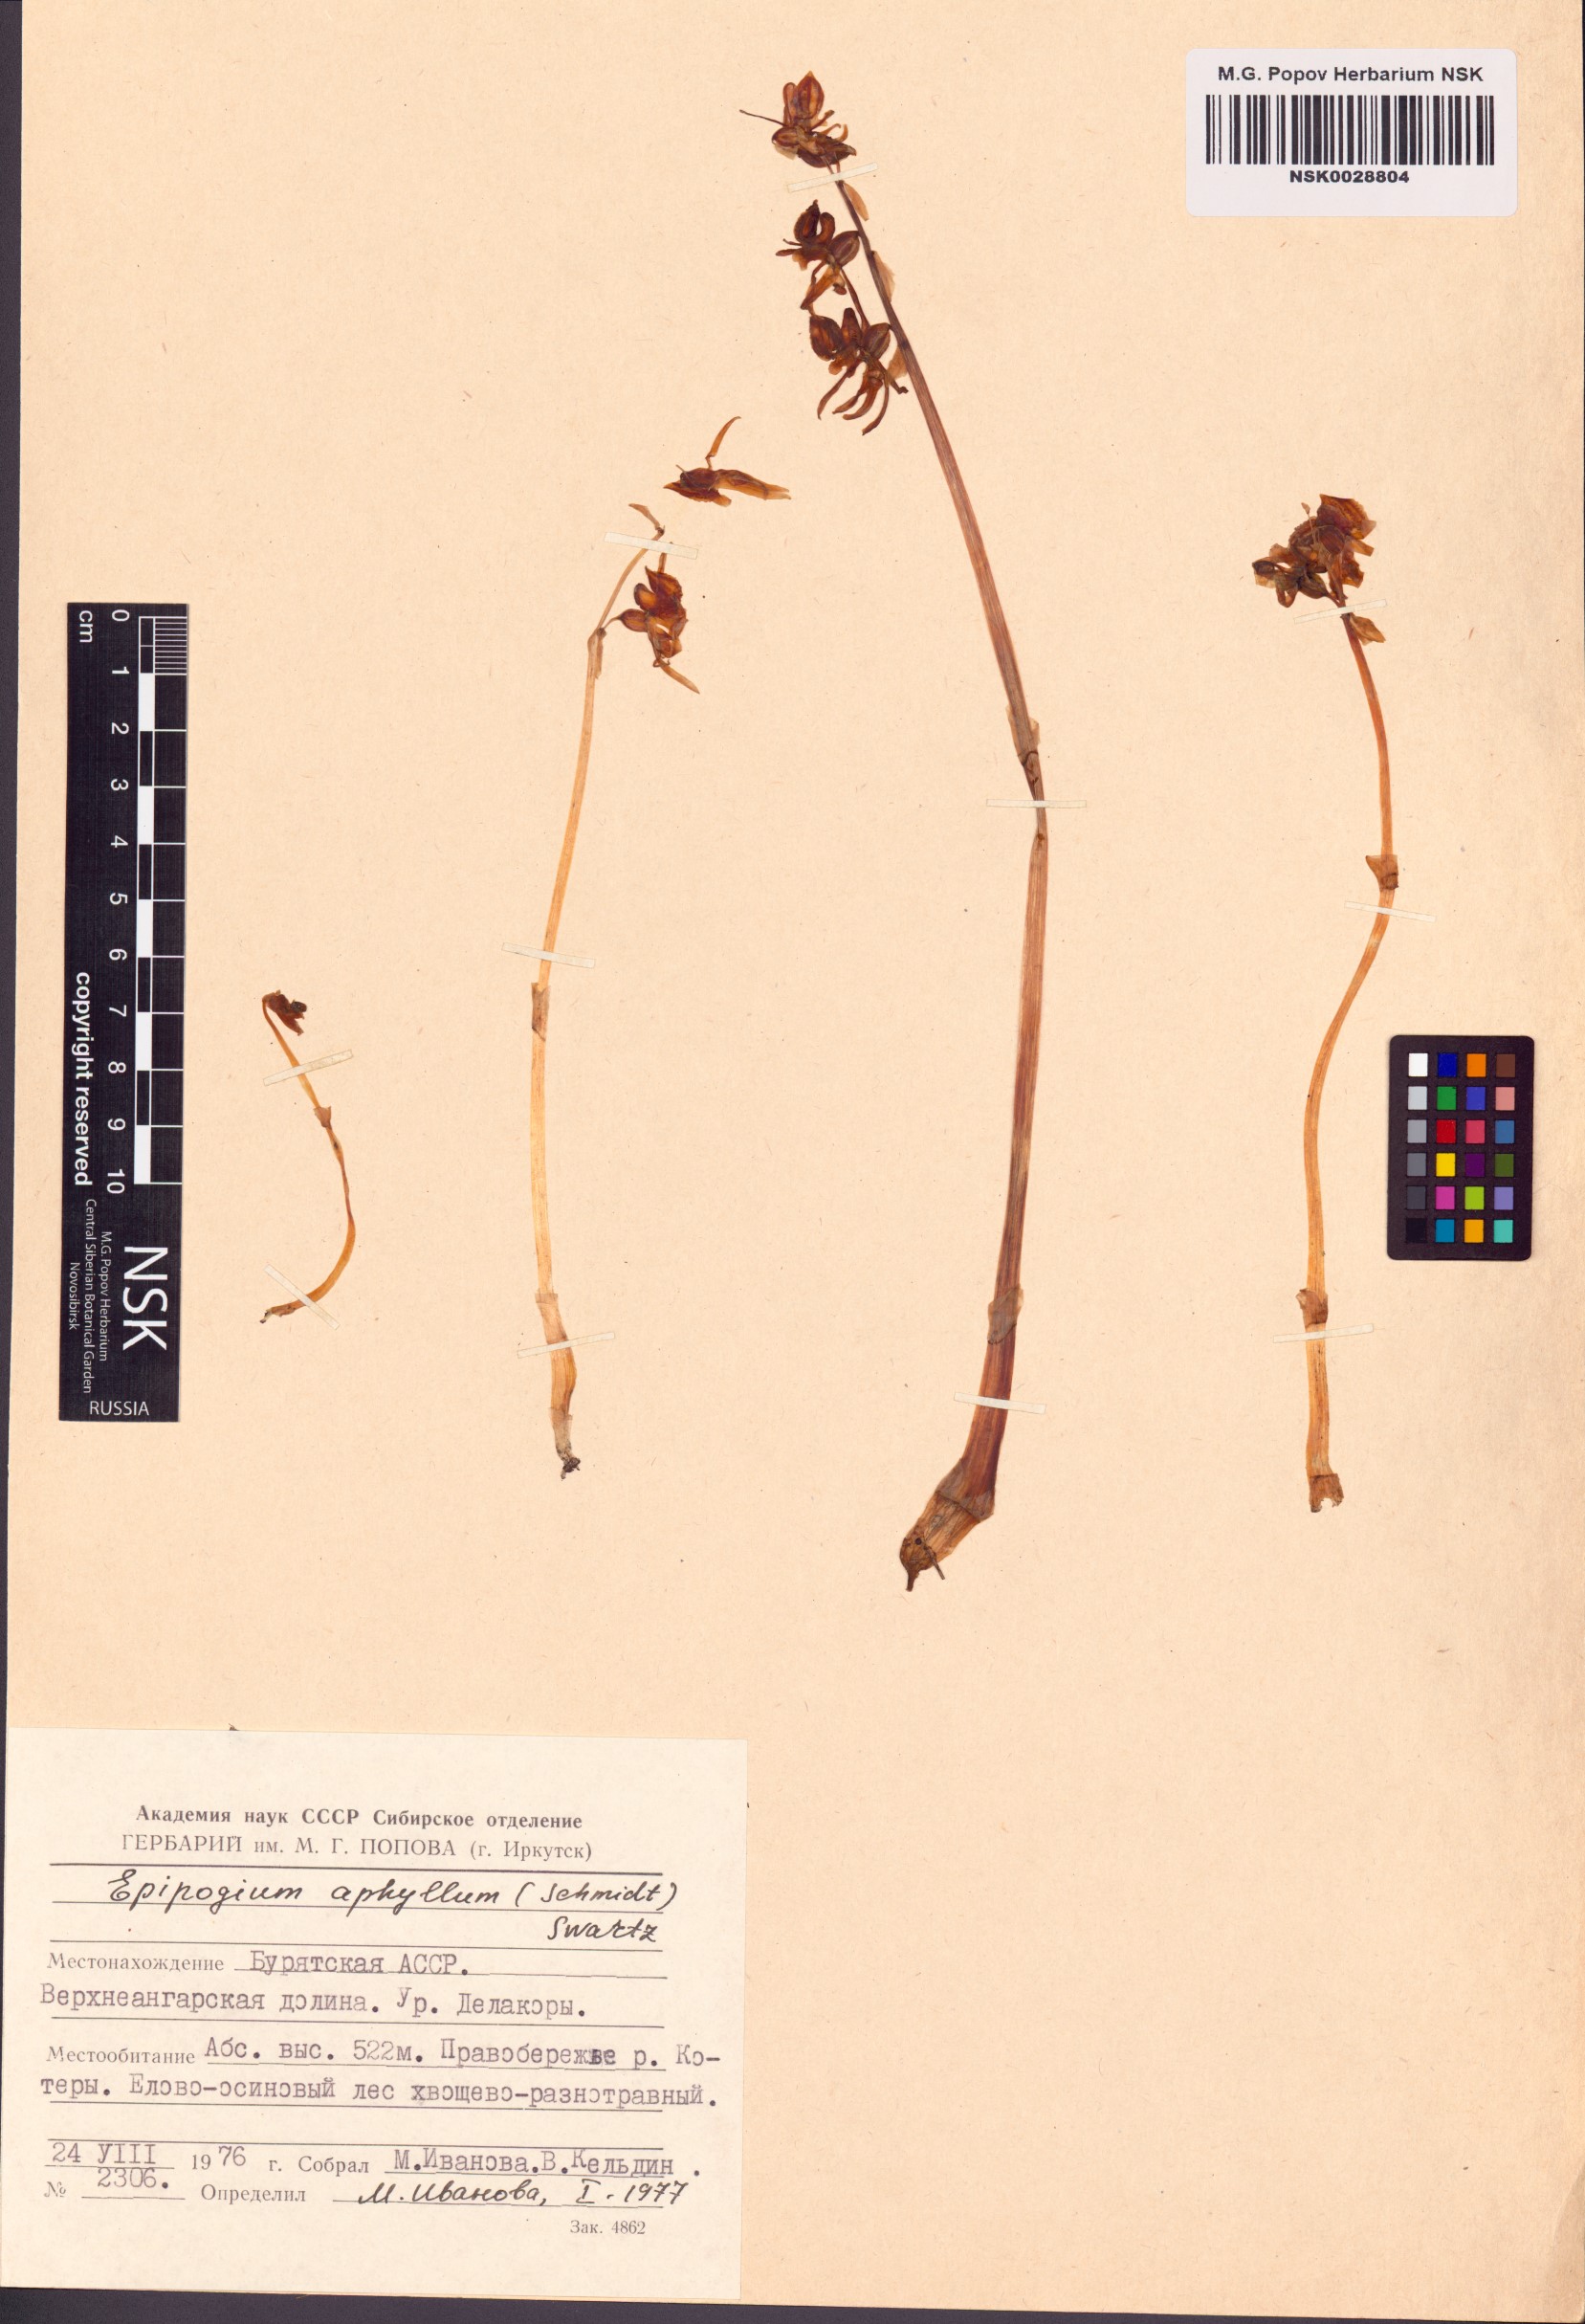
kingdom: Plantae
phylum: Tracheophyta
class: Liliopsida
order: Asparagales
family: Orchidaceae
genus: Epipogium
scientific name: Epipogium aphyllum
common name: Ghost orchid
